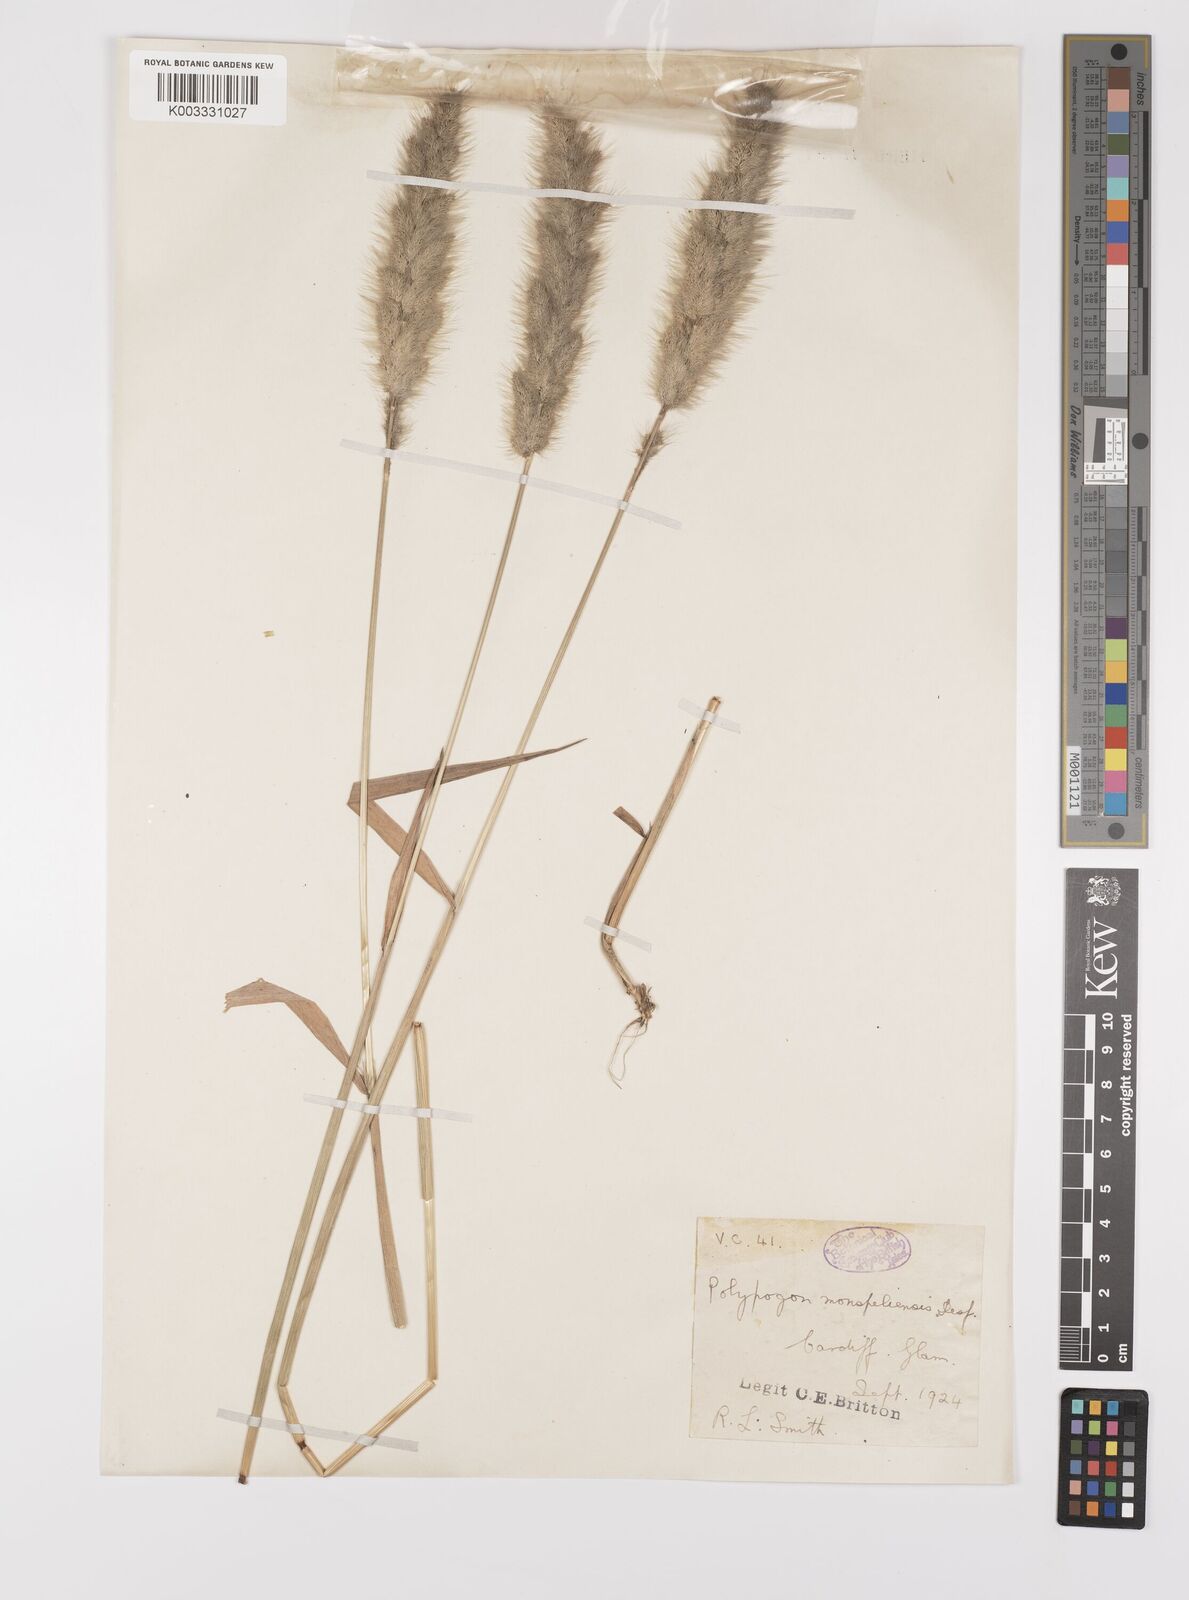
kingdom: Plantae
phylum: Tracheophyta
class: Liliopsida
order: Poales
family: Poaceae
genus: Polypogon
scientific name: Polypogon monspeliensis
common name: Annual rabbitsfoot grass
